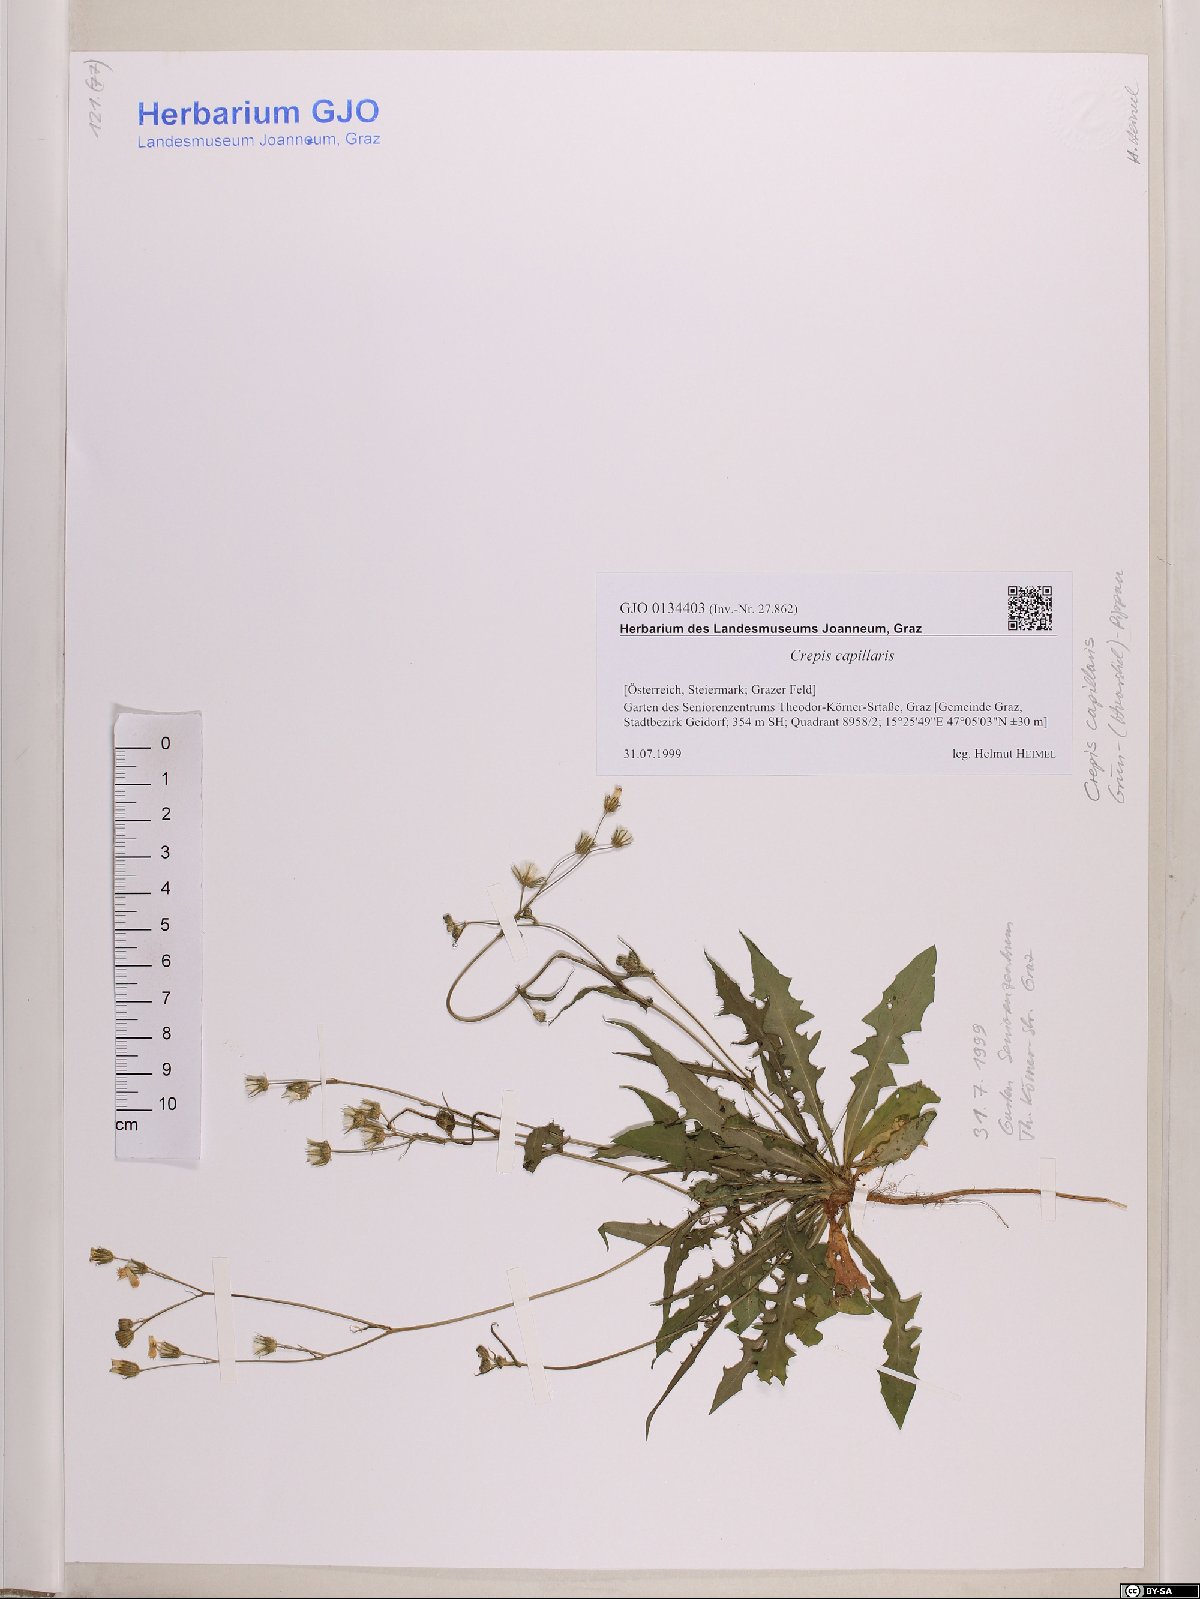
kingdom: Plantae
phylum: Tracheophyta
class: Magnoliopsida
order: Asterales
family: Asteraceae
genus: Crepis
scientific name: Crepis capillaris
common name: Smooth hawksbeard
